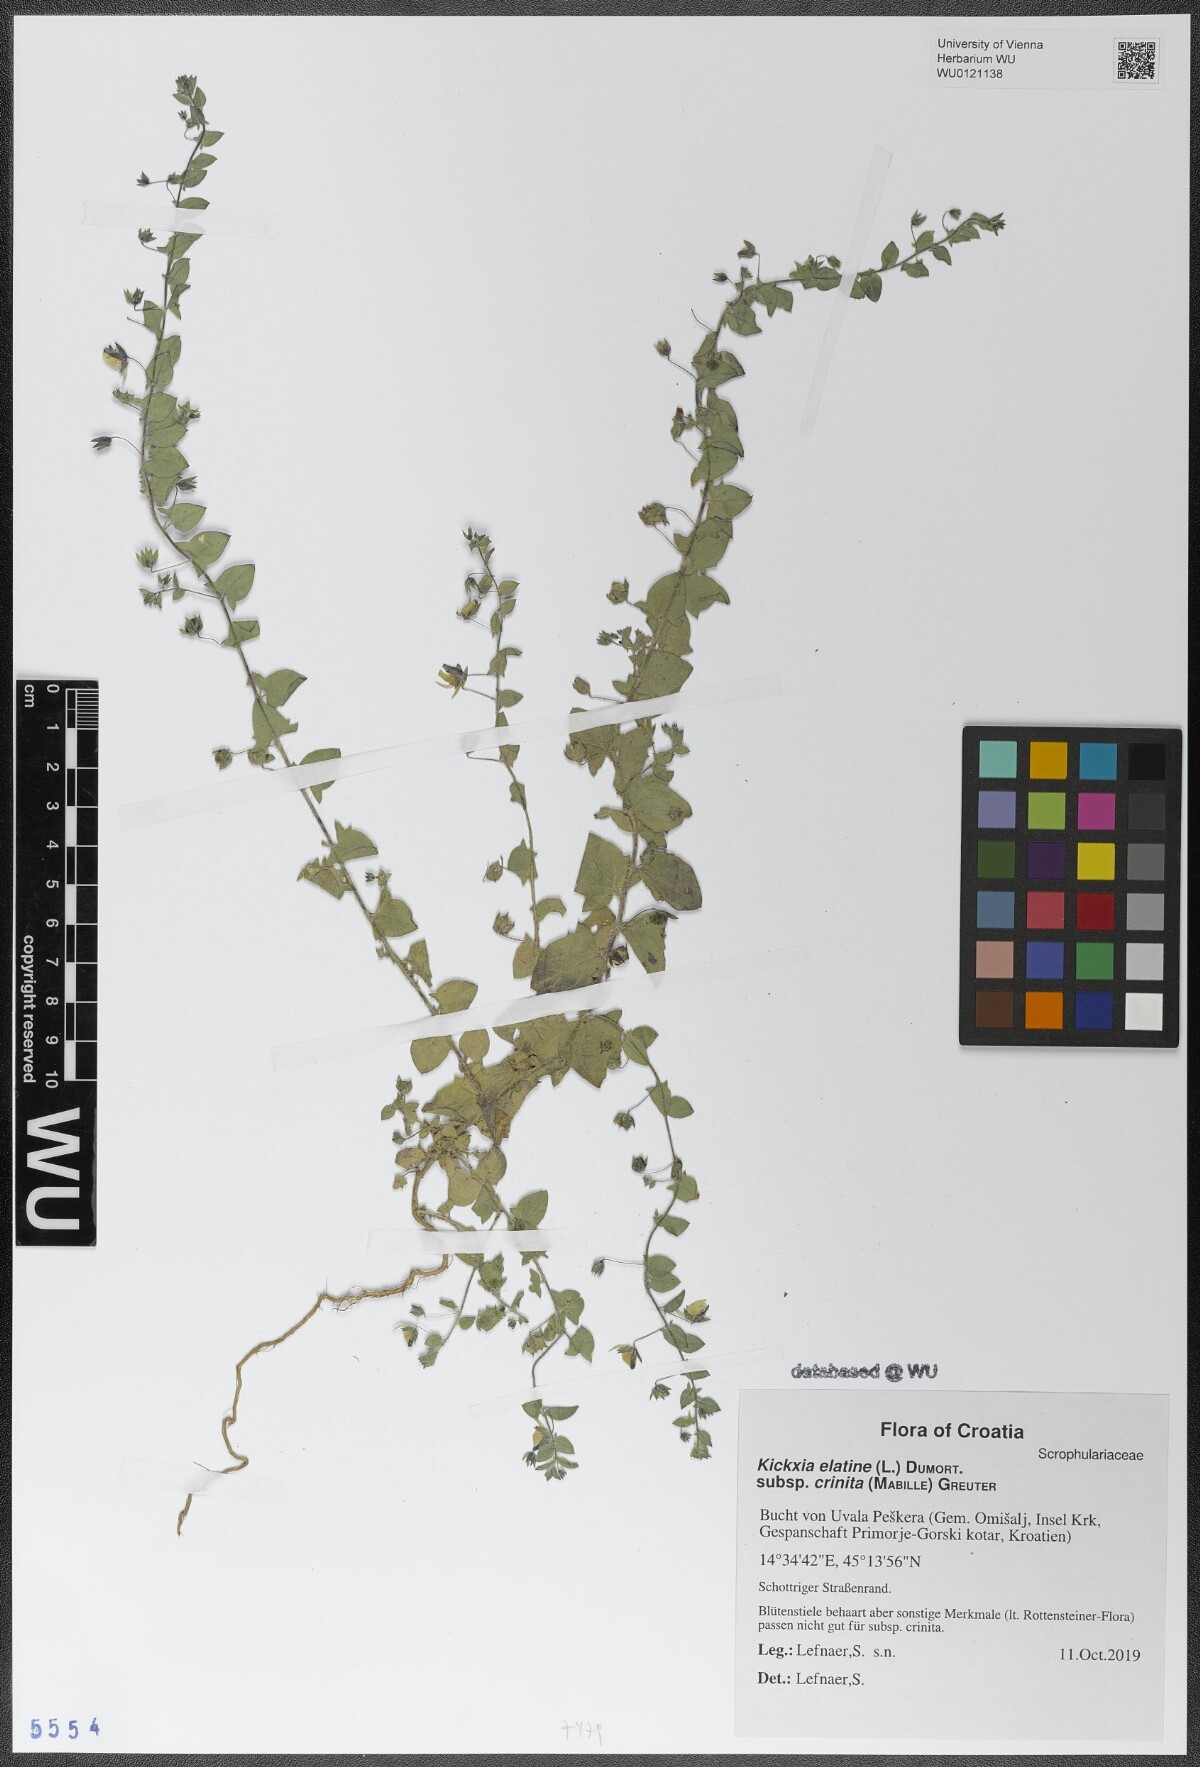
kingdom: Plantae
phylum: Tracheophyta
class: Magnoliopsida
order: Lamiales
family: Plantaginaceae
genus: Kickxia
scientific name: Kickxia elatine
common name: Sharp-leaved fluellen
